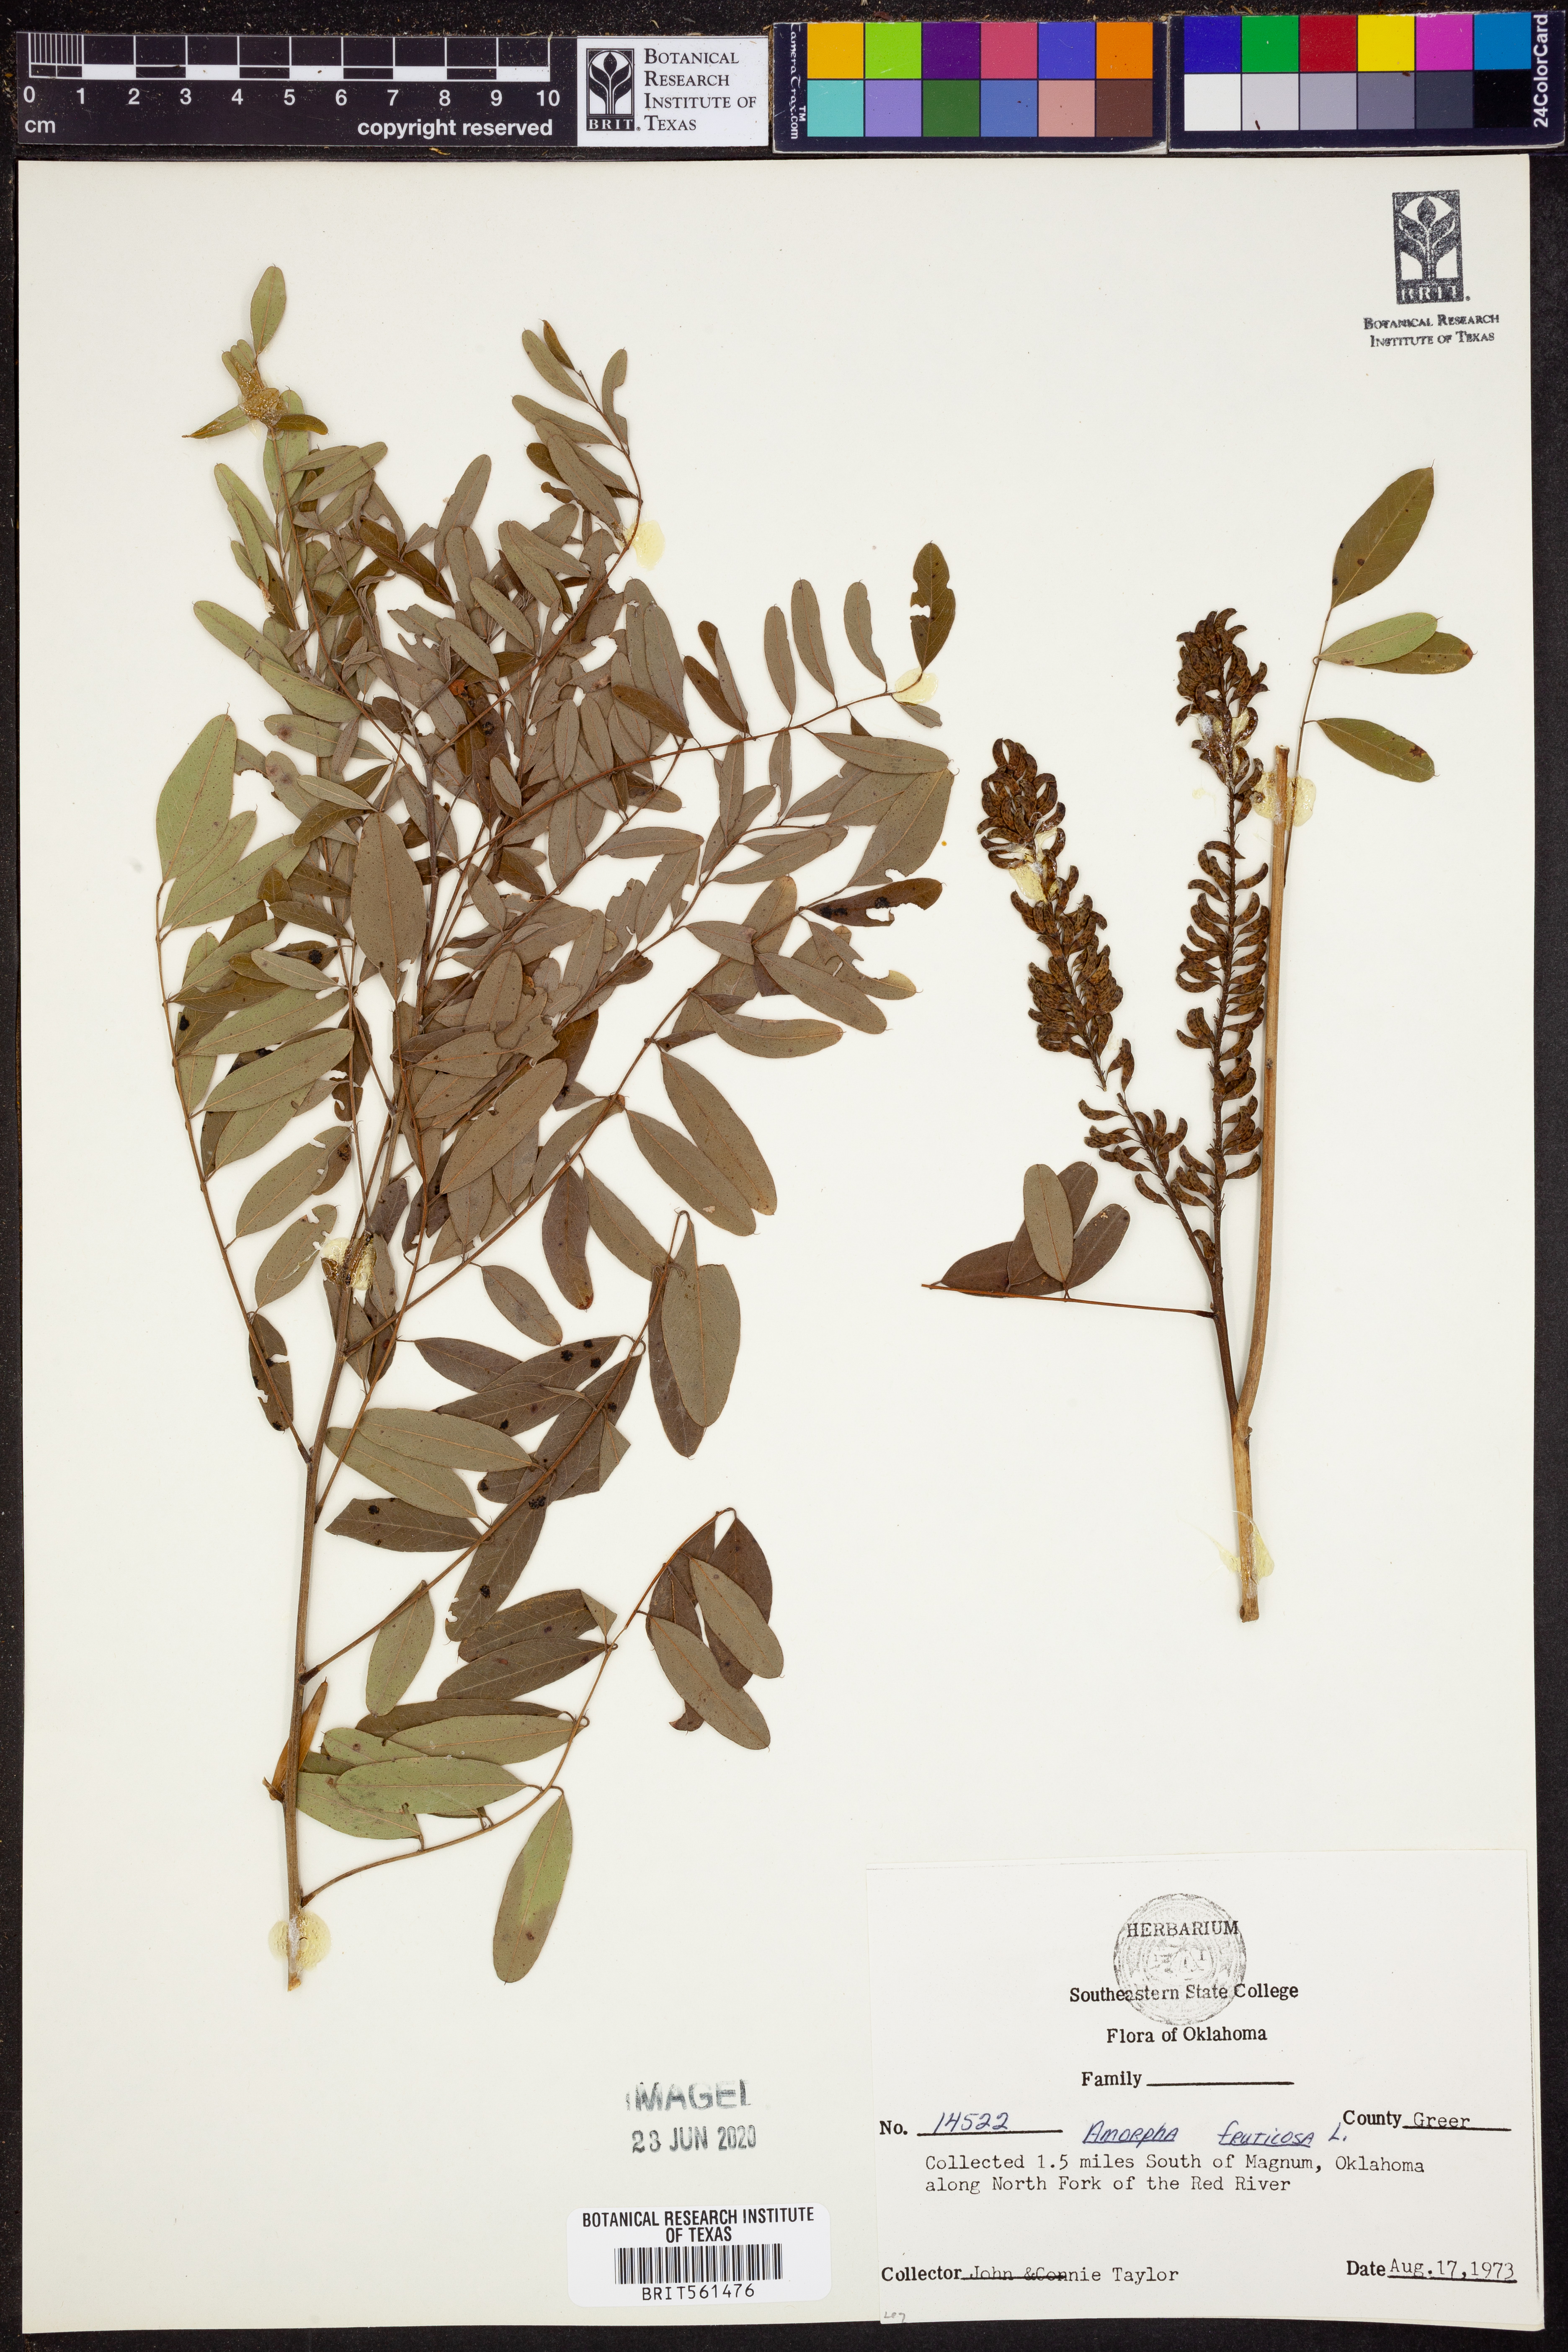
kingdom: Plantae
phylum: Tracheophyta
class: Magnoliopsida
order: Fabales
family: Fabaceae
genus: Amorpha
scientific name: Amorpha fruticosa
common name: False indigo
